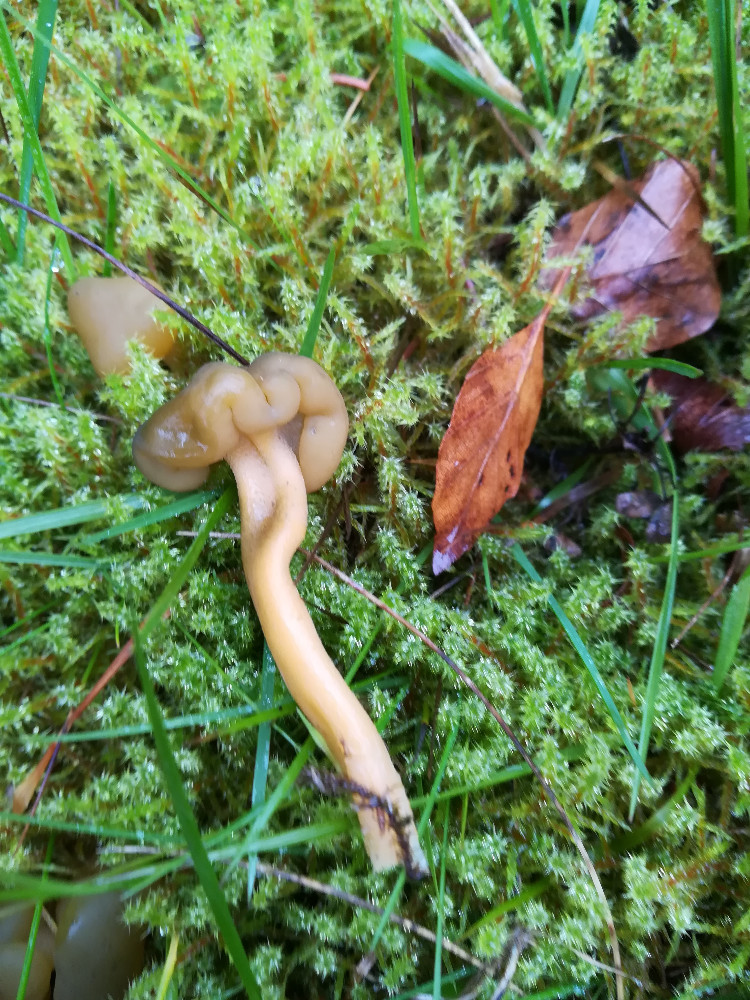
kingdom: Fungi
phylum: Ascomycota
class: Leotiomycetes
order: Leotiales
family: Leotiaceae
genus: Leotia
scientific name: Leotia lubrica
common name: ravsvamp
